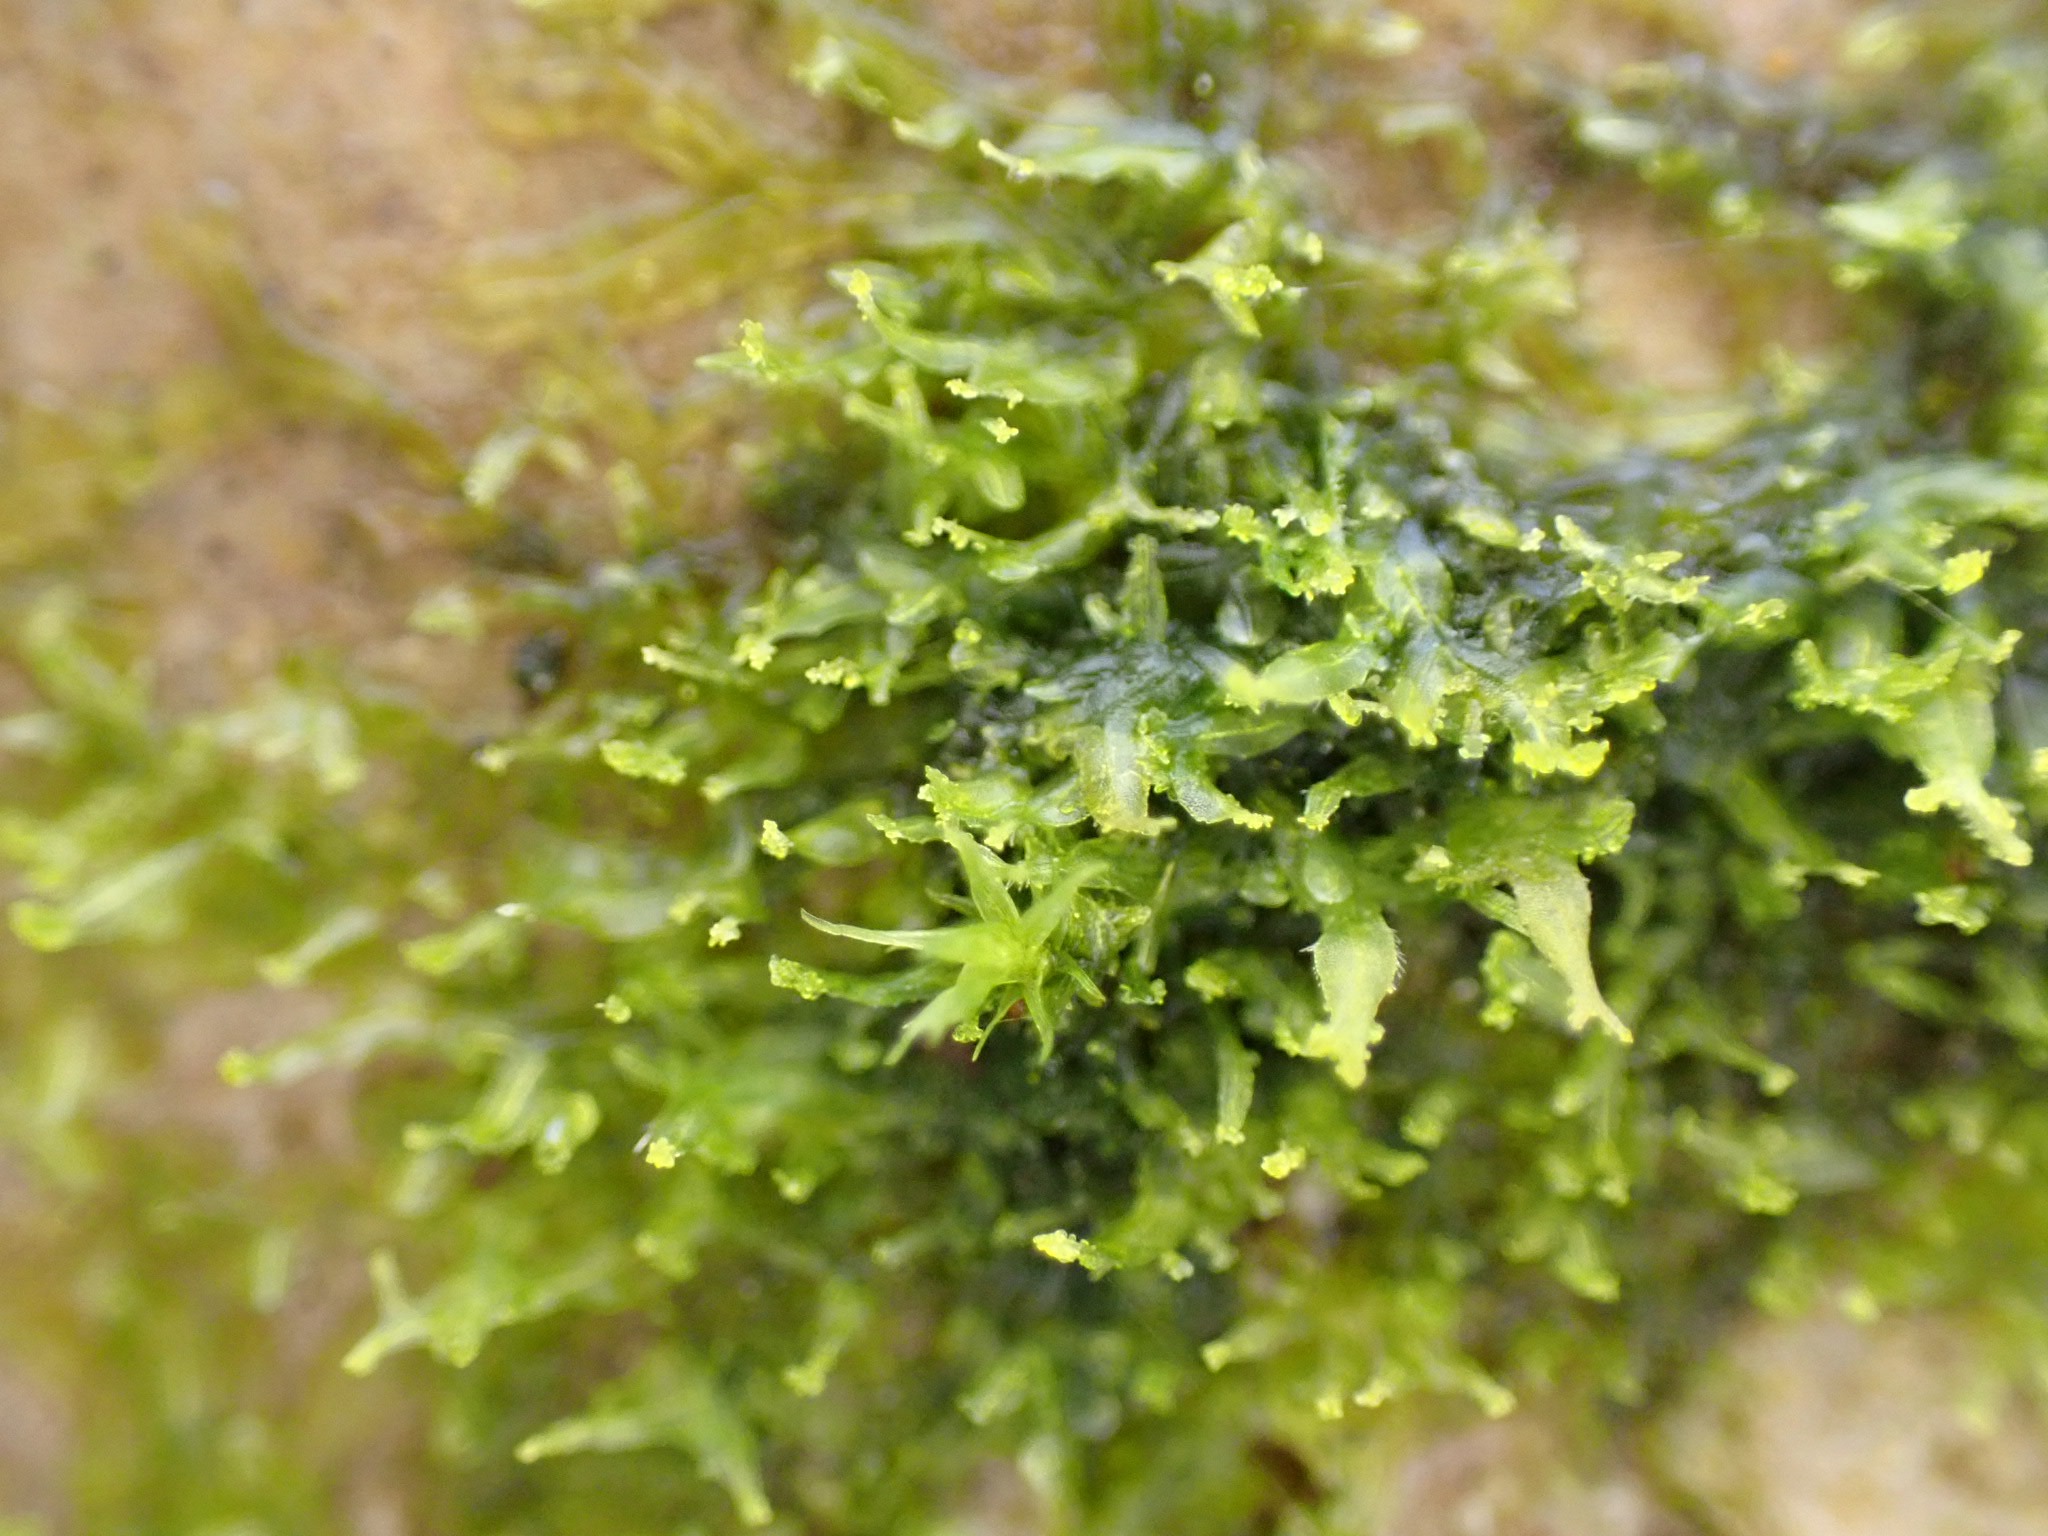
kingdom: Plantae
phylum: Marchantiophyta
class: Jungermanniopsida
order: Metzgeriales
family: Aneuraceae
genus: Riccardia
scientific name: Riccardia palmata
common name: Blågrøn gaffelløv
